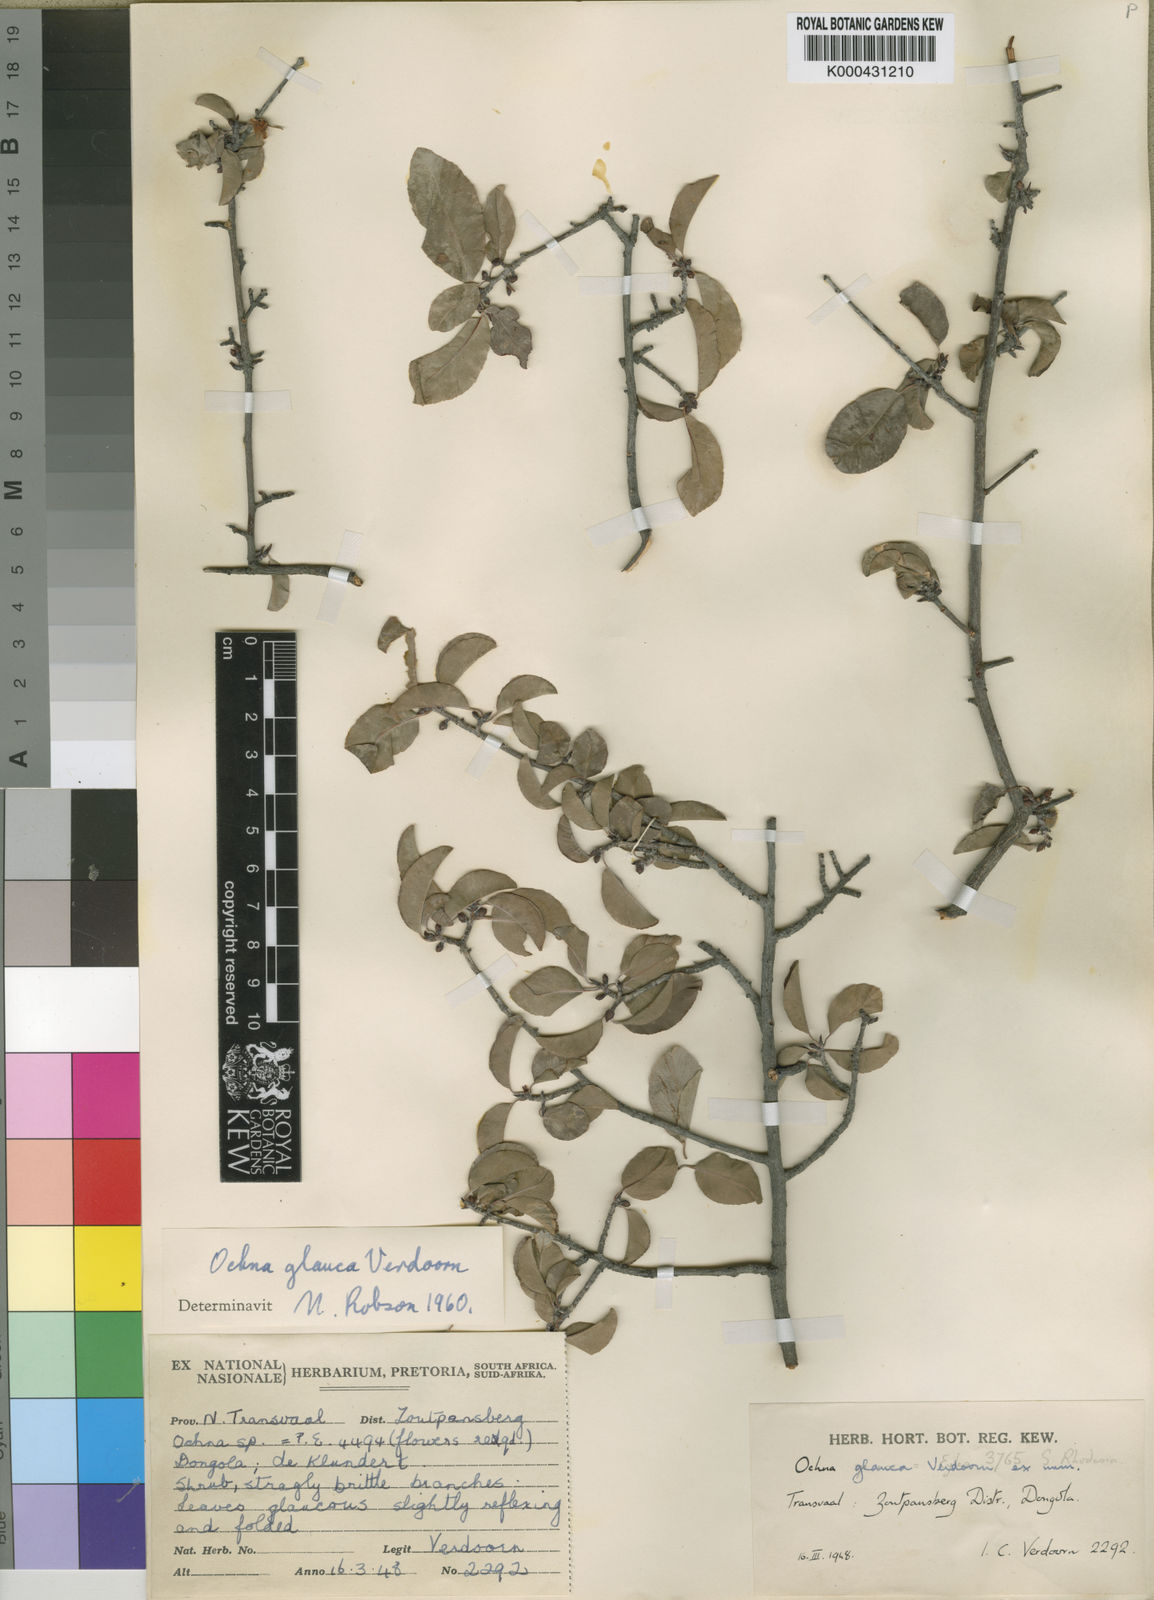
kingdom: Plantae
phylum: Tracheophyta
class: Magnoliopsida
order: Malpighiales
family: Ochnaceae
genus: Ochna
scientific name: Ochna glauca
